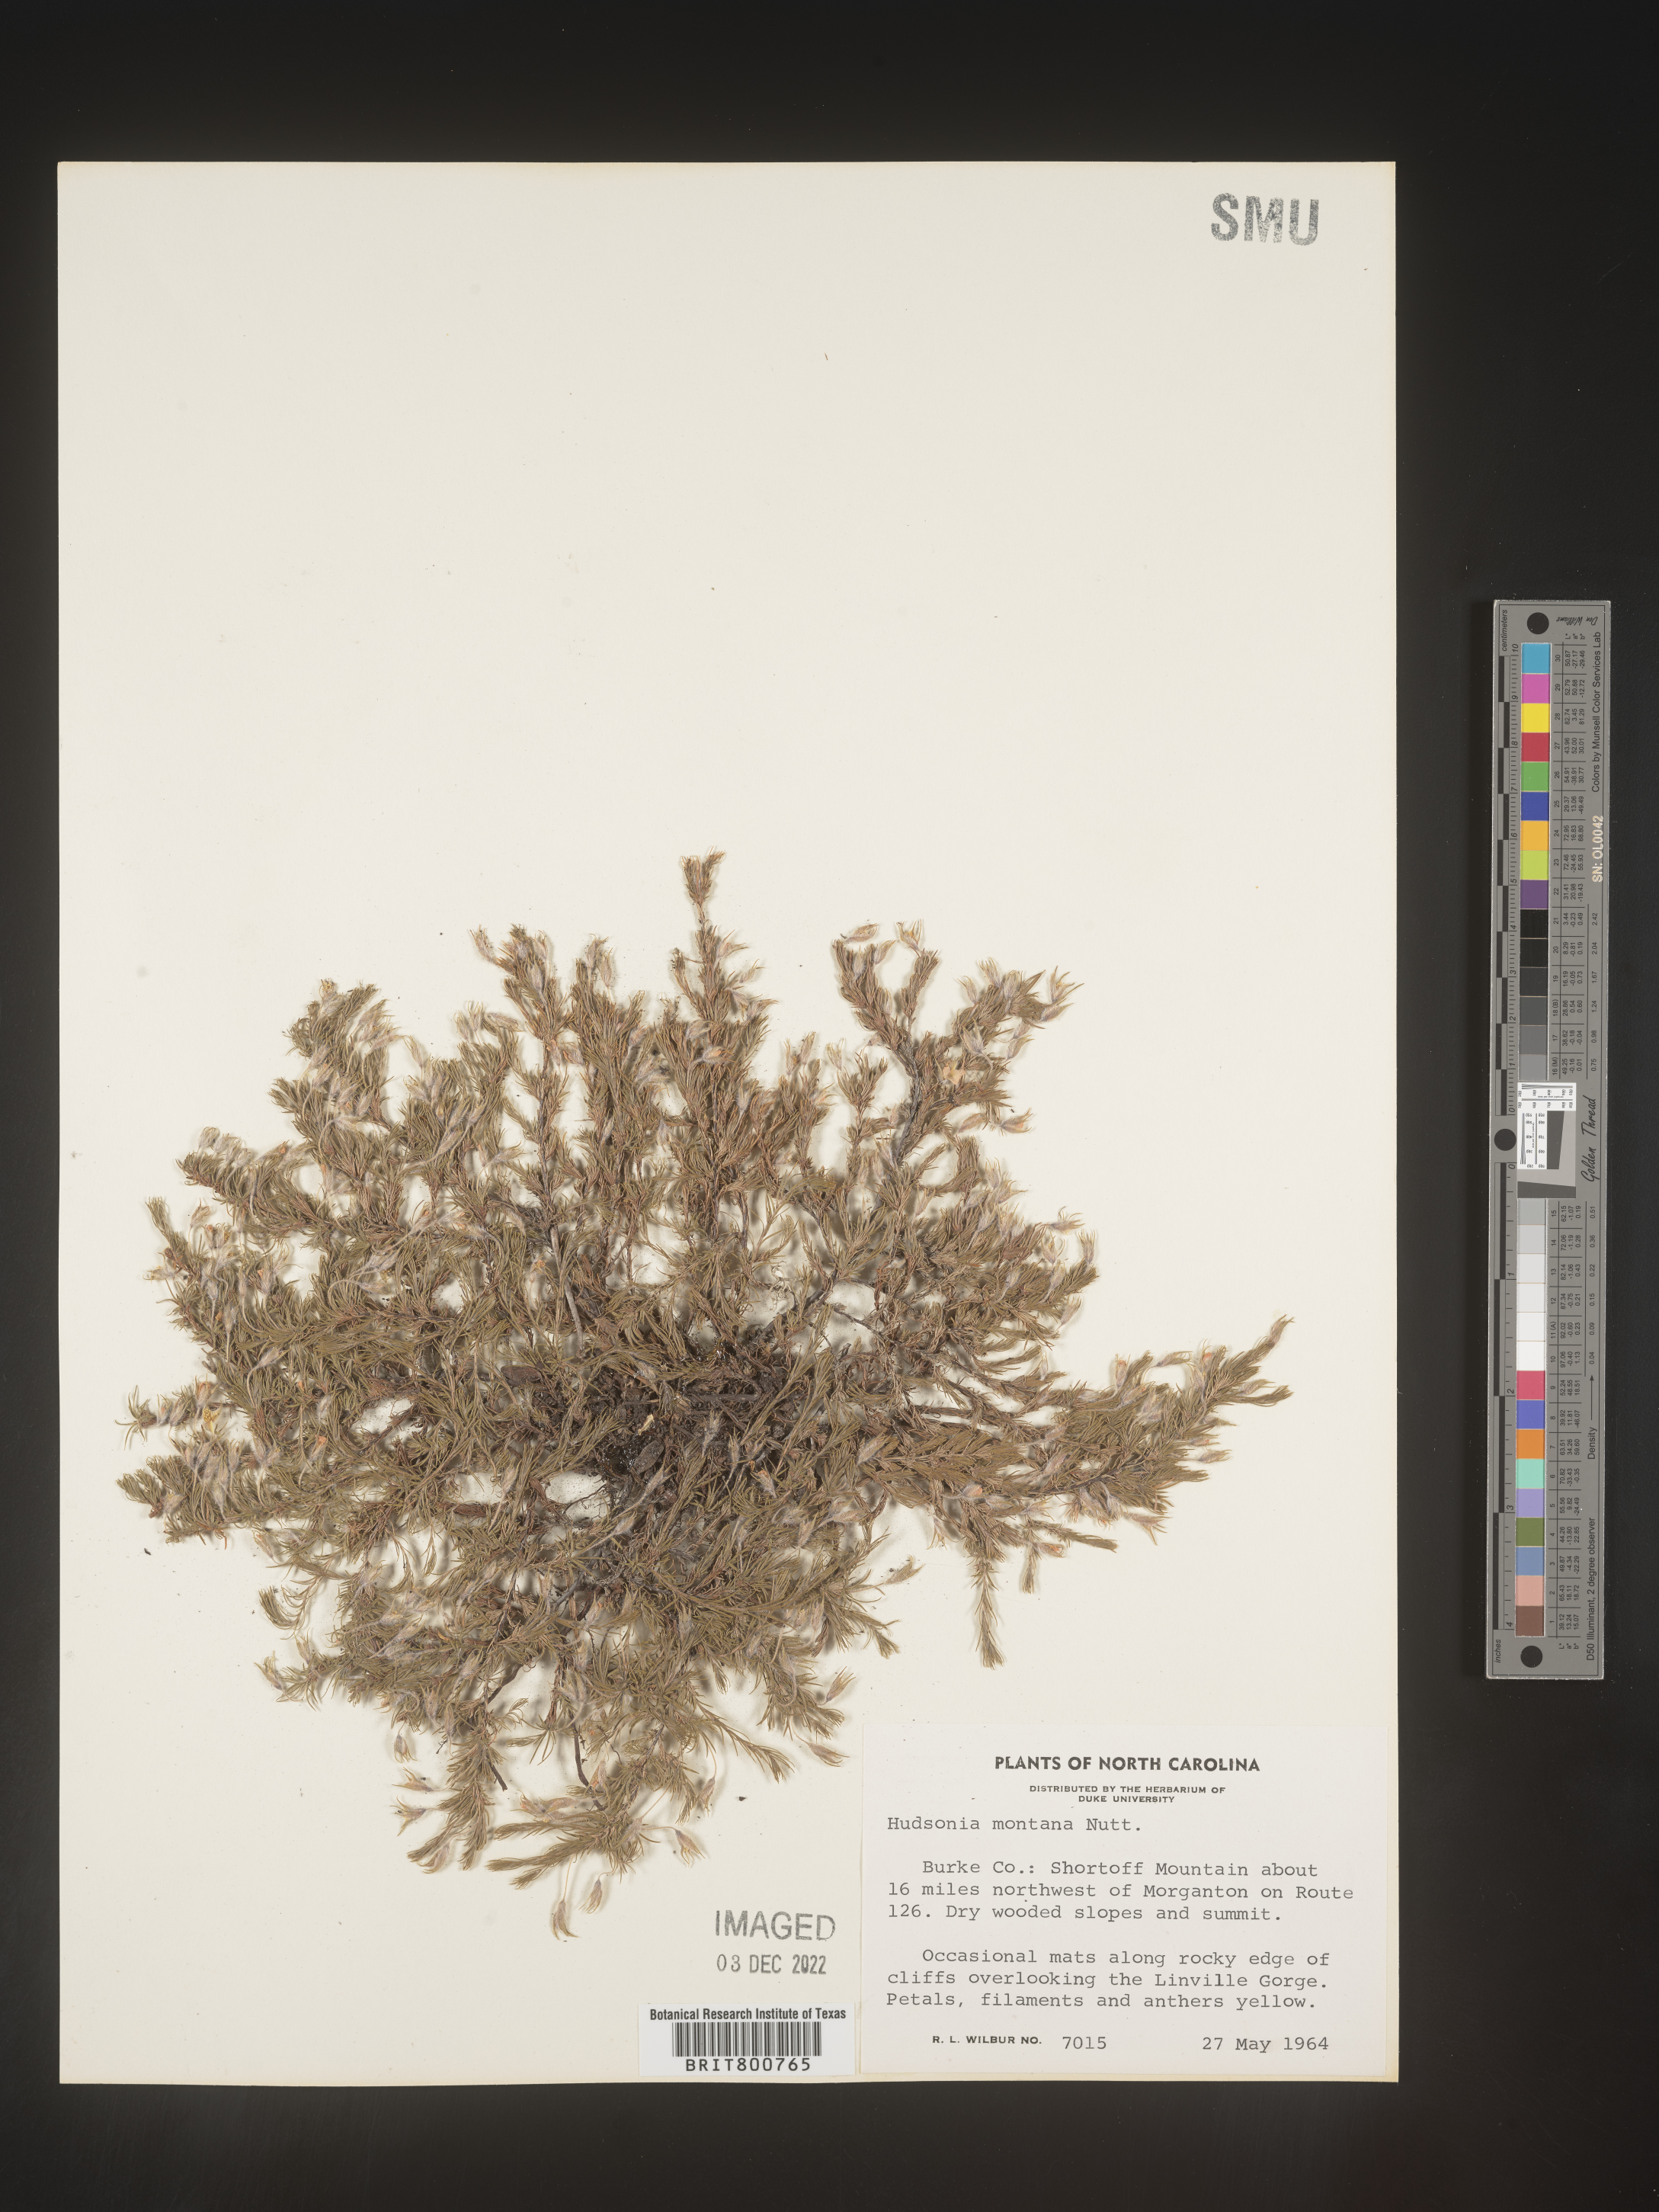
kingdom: Plantae
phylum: Tracheophyta
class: Magnoliopsida
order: Malvales
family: Cistaceae
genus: Hudsonia
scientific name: Hudsonia ericoides
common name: Golden-heather
